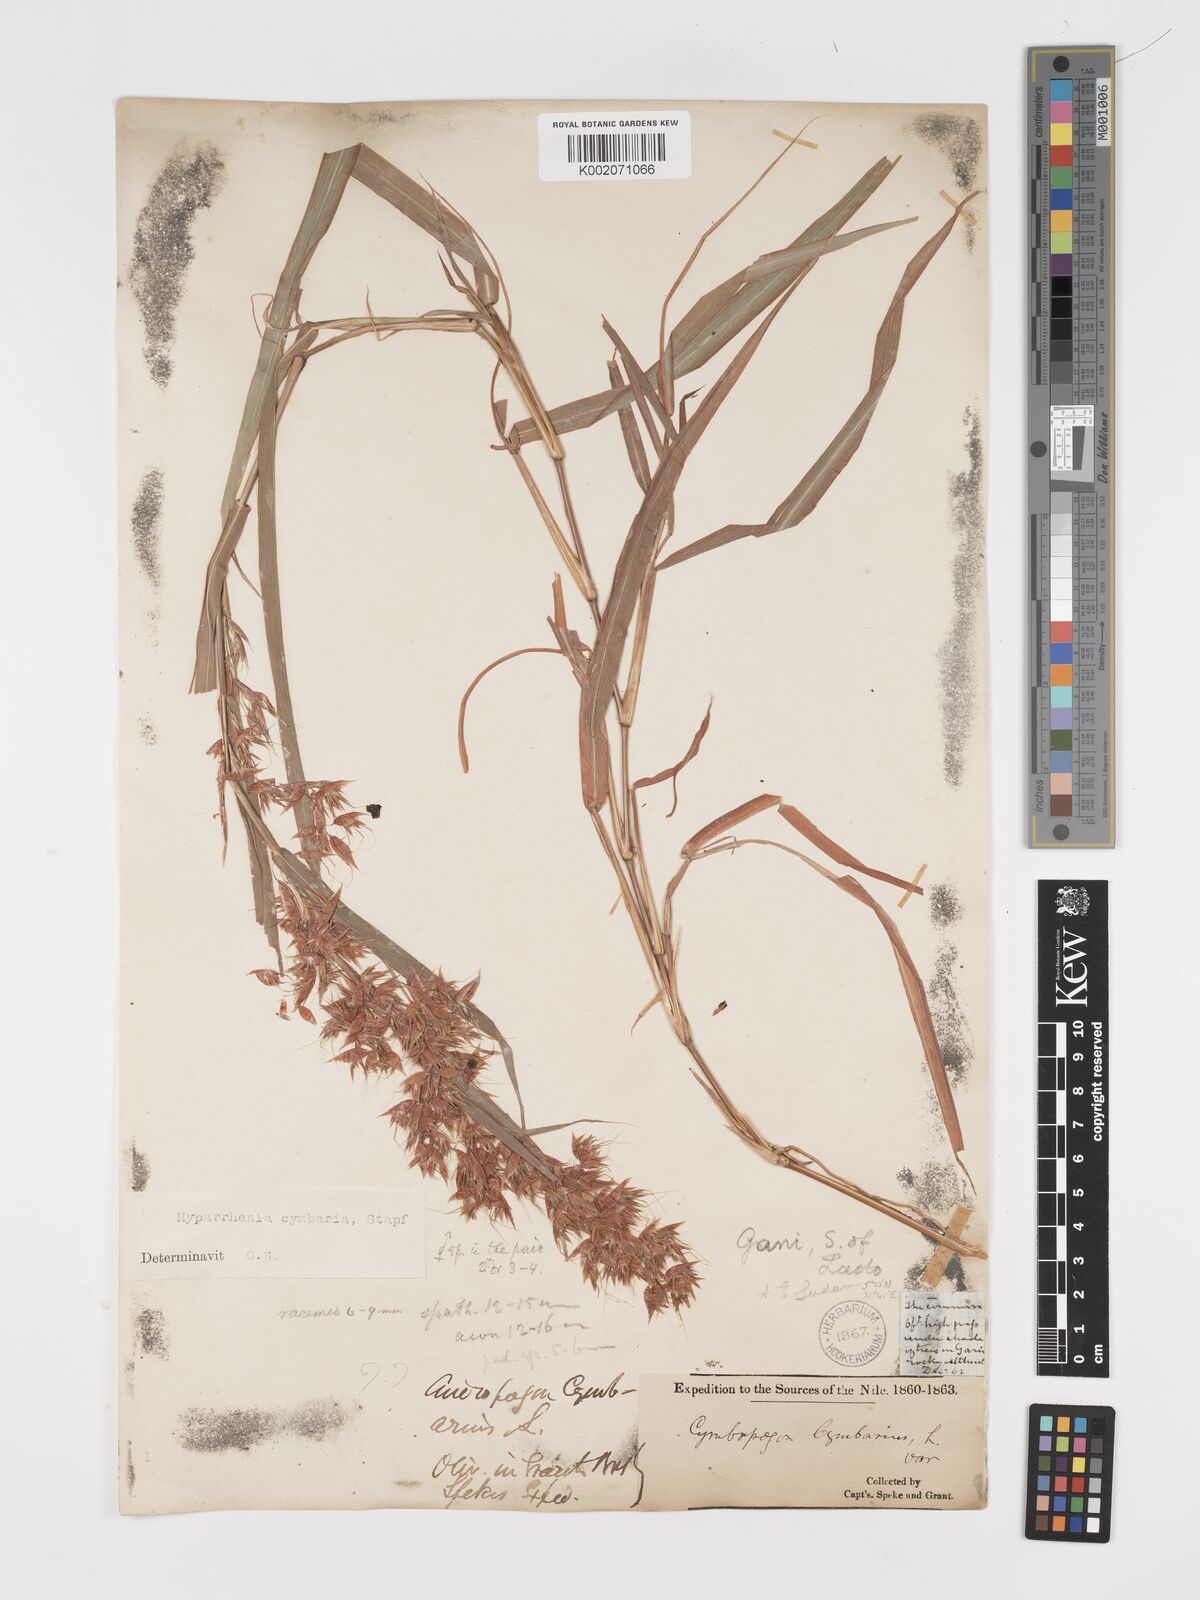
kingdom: Plantae
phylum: Tracheophyta
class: Liliopsida
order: Poales
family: Poaceae
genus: Hyparrhenia
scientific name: Hyparrhenia cymbaria
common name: Boat thatching grass
